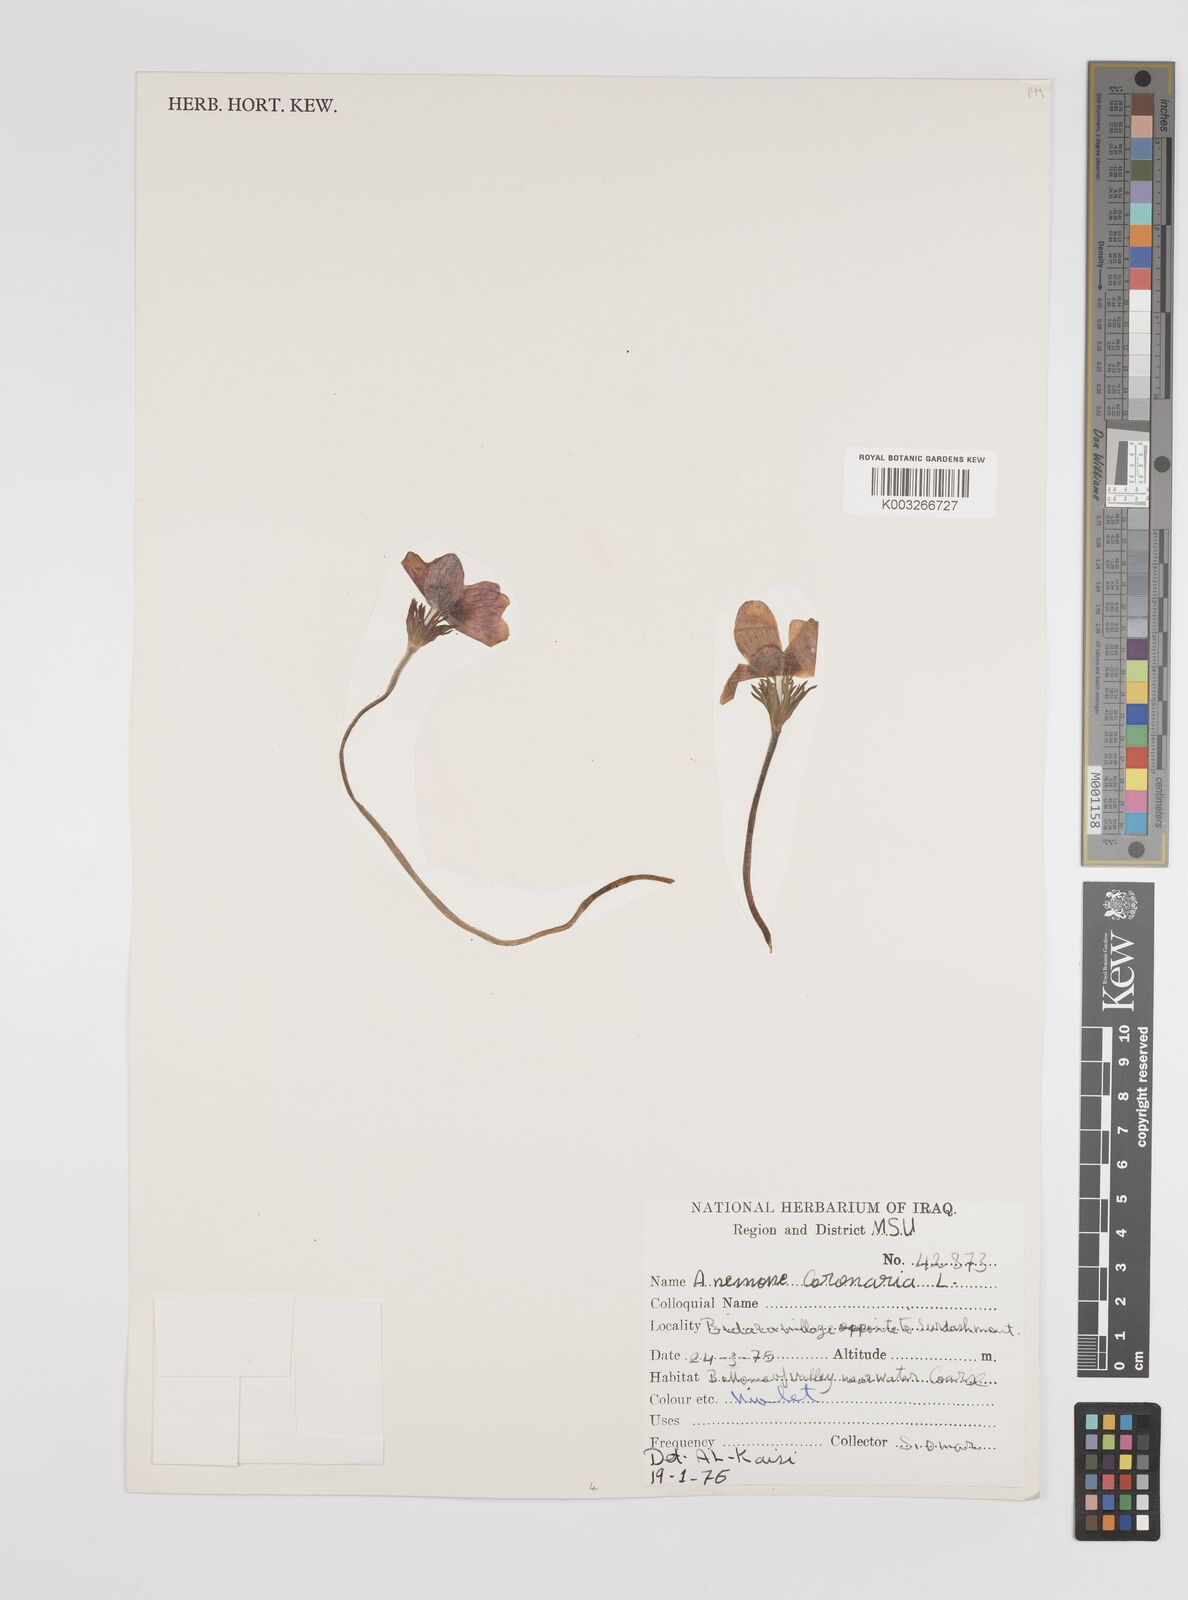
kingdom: Plantae
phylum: Tracheophyta
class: Magnoliopsida
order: Ranunculales
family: Ranunculaceae
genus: Anemone
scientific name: Anemone coronaria
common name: Poppy anemone
